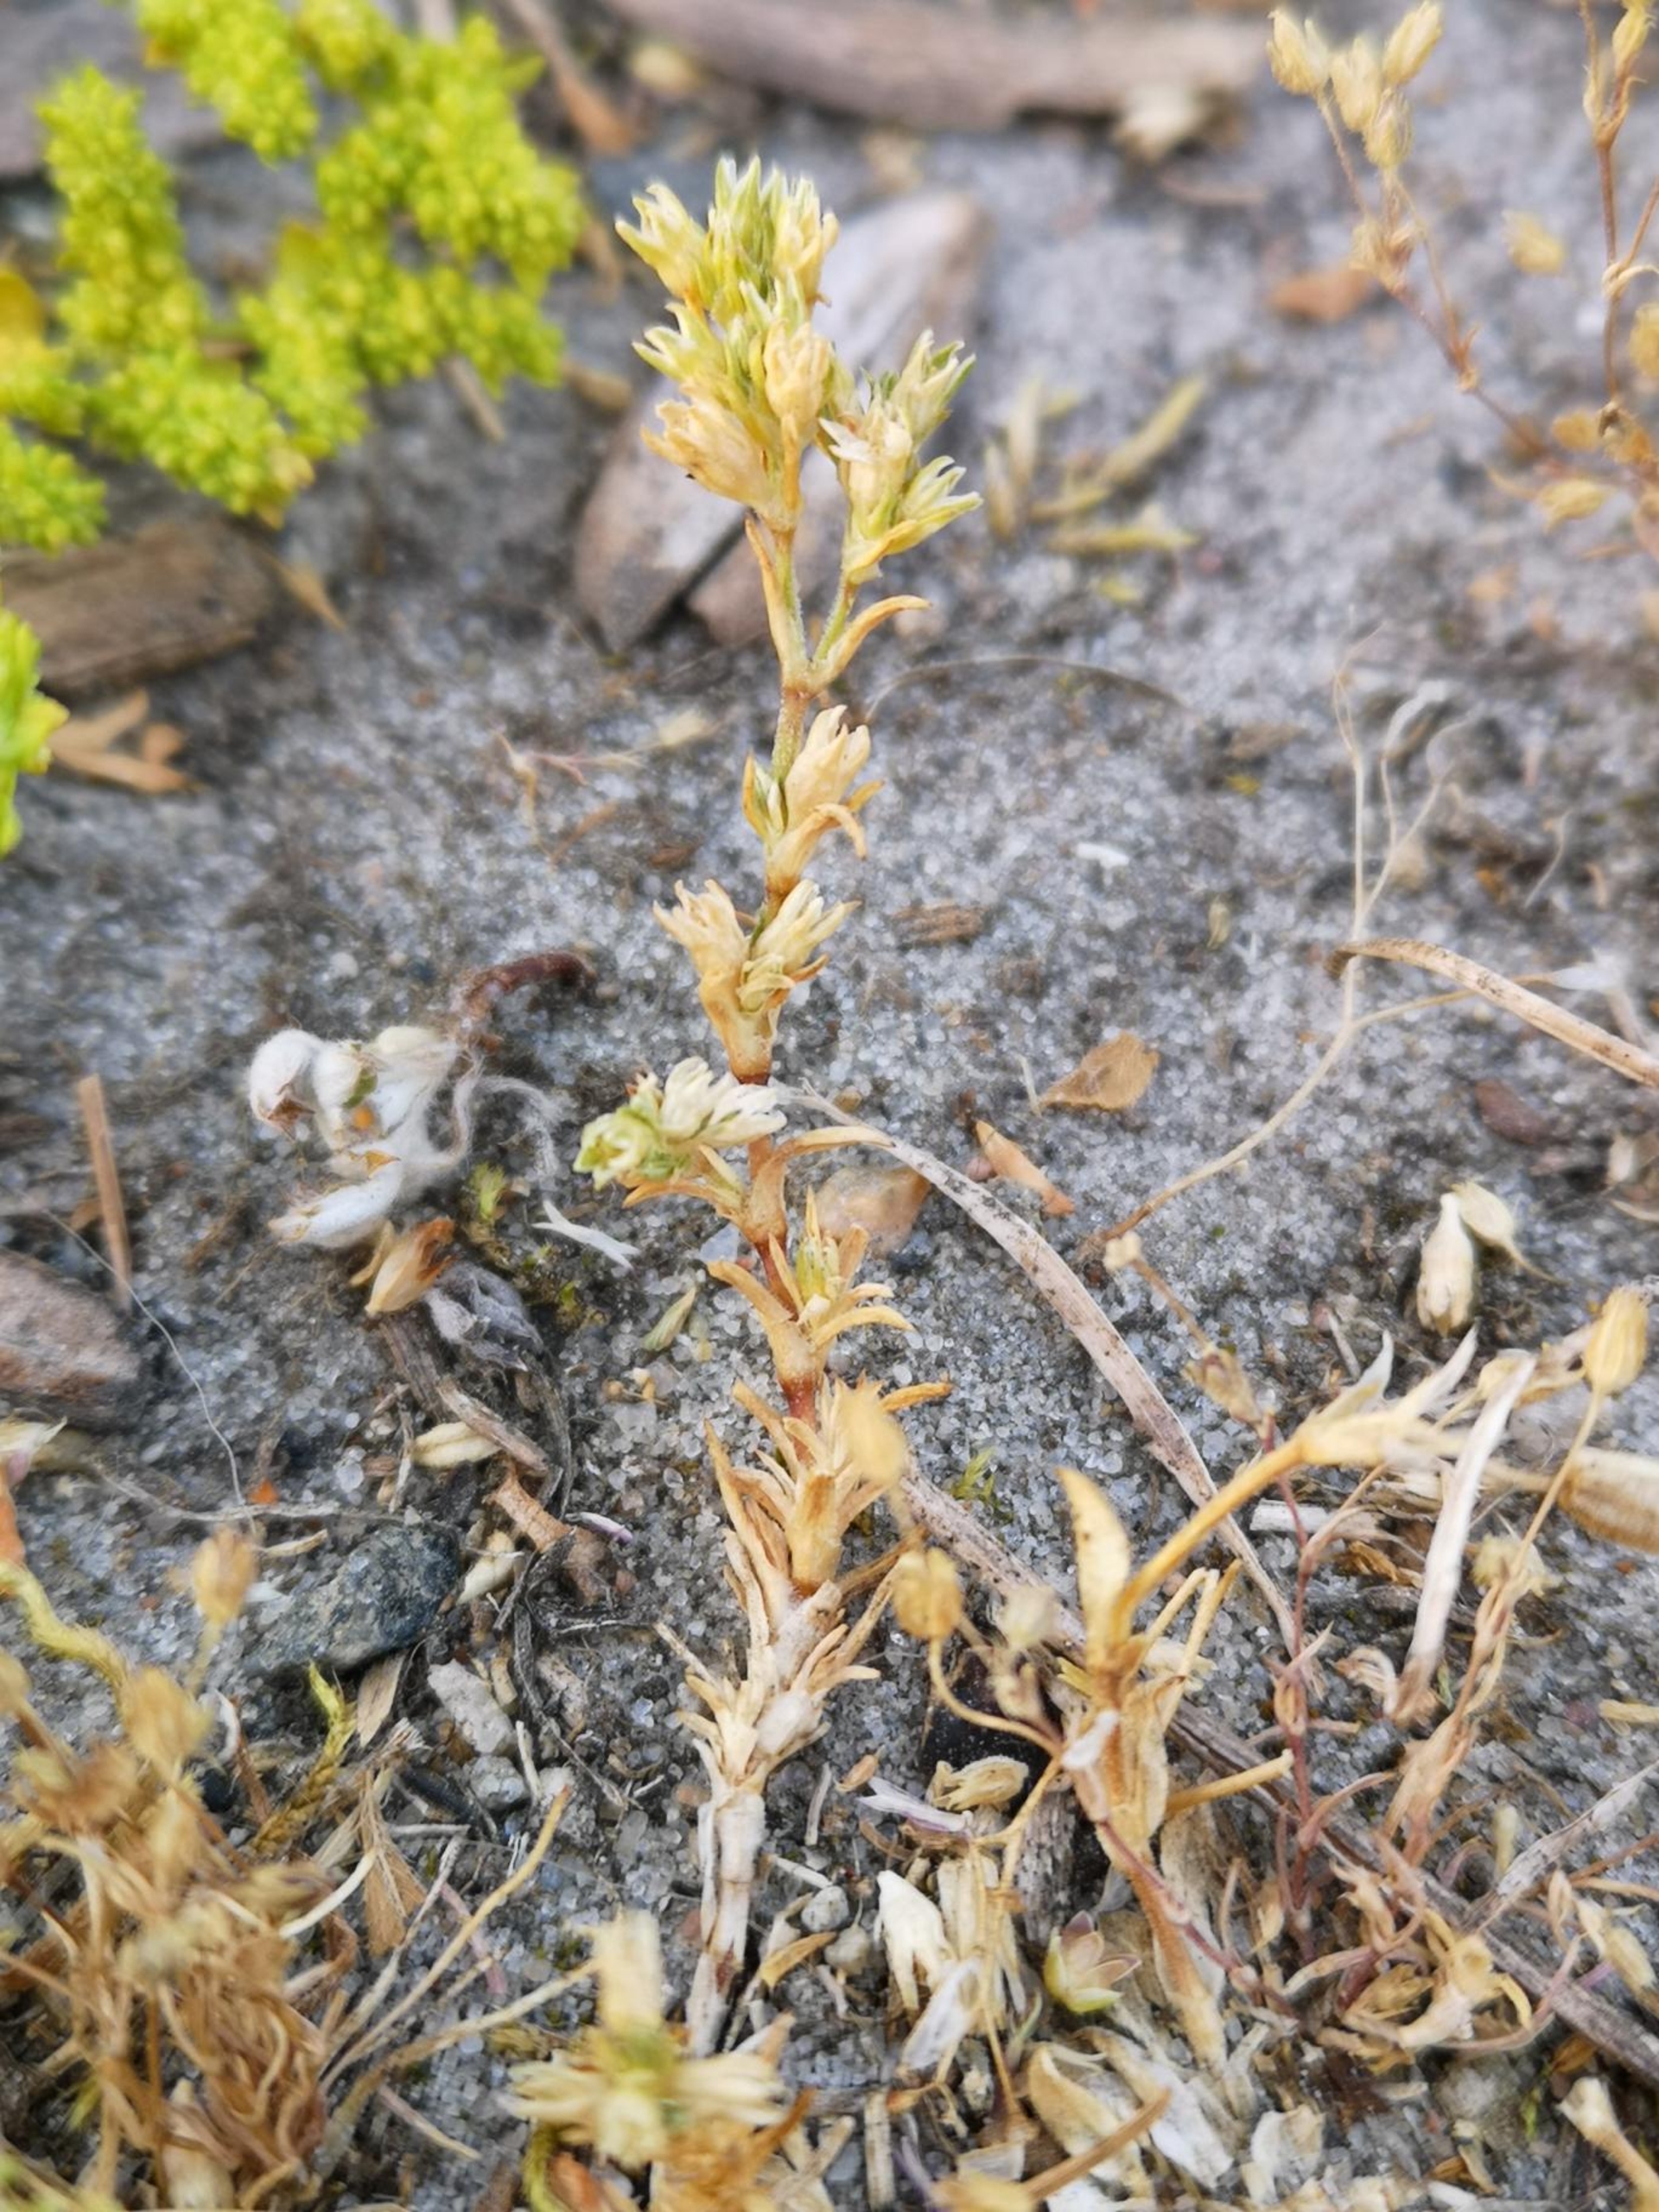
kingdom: Plantae
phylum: Tracheophyta
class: Magnoliopsida
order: Caryophyllales
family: Caryophyllaceae
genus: Scleranthus
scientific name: Scleranthus annuus
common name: Bakke-knavel
